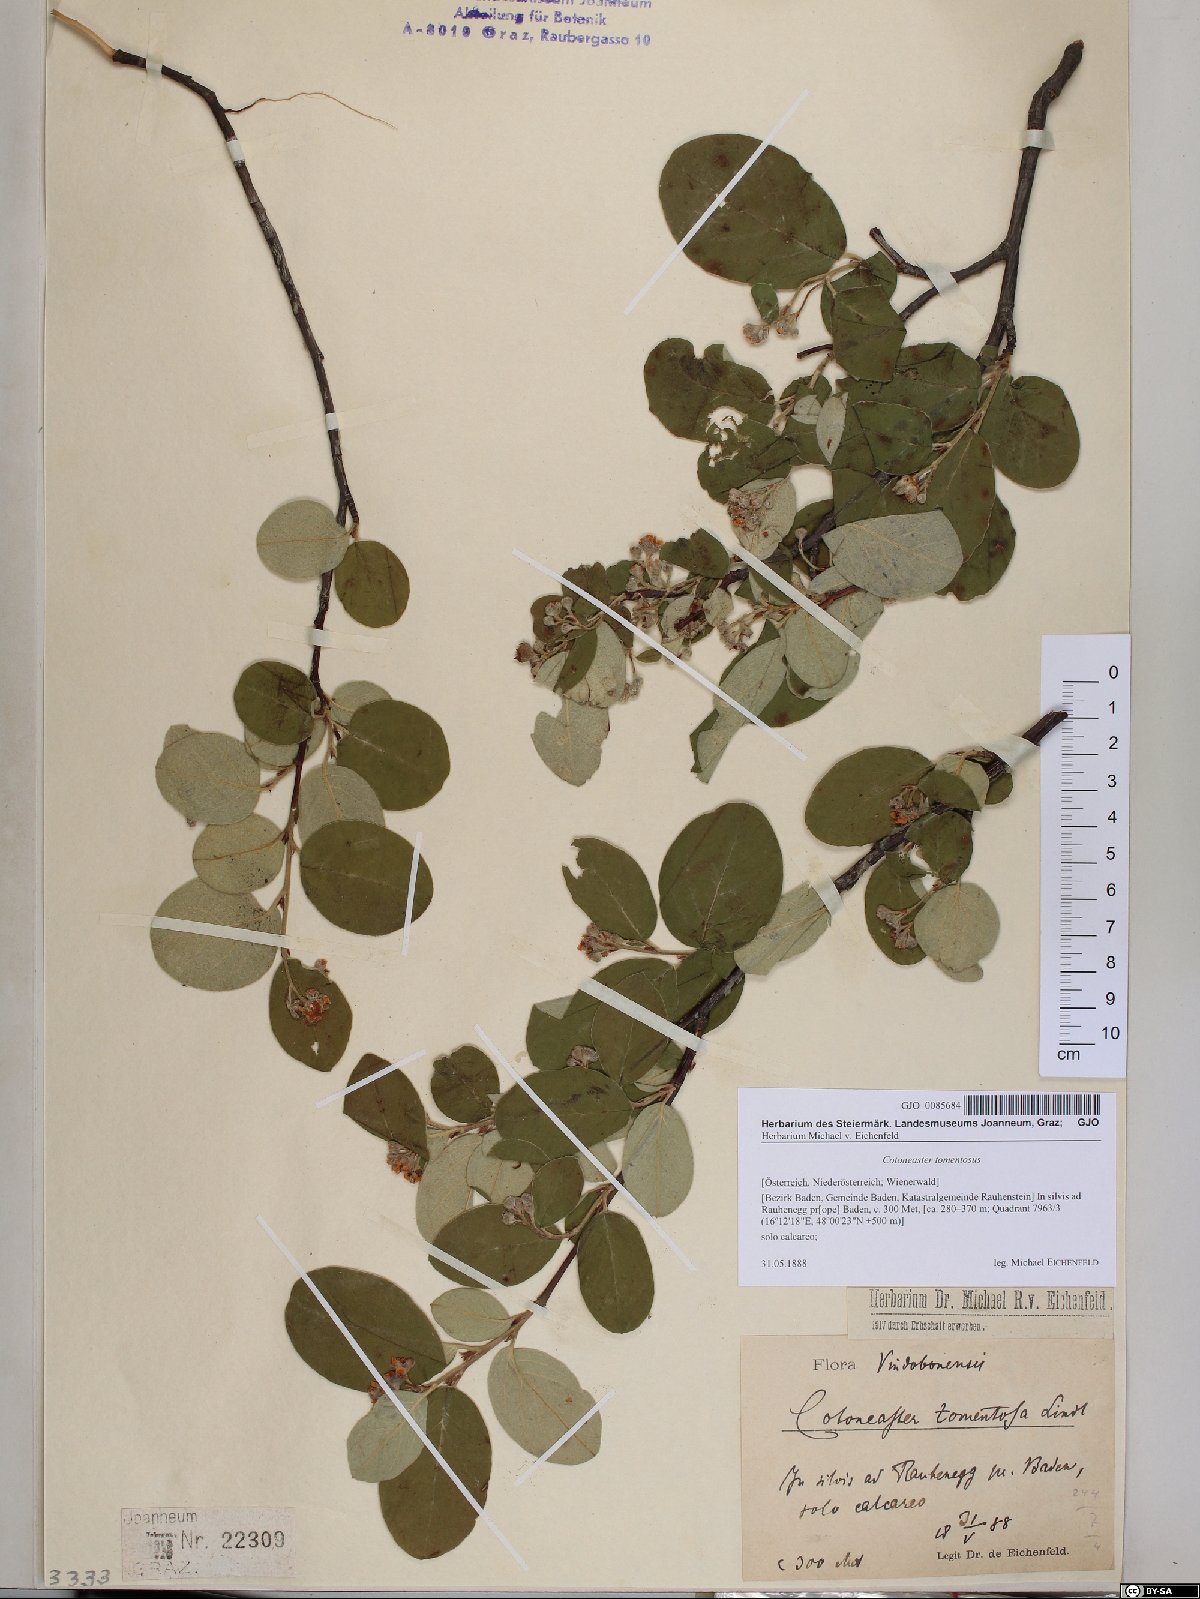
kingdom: Plantae
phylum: Tracheophyta
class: Magnoliopsida
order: Rosales
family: Rosaceae
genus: Cotoneaster
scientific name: Cotoneaster tomentosus
